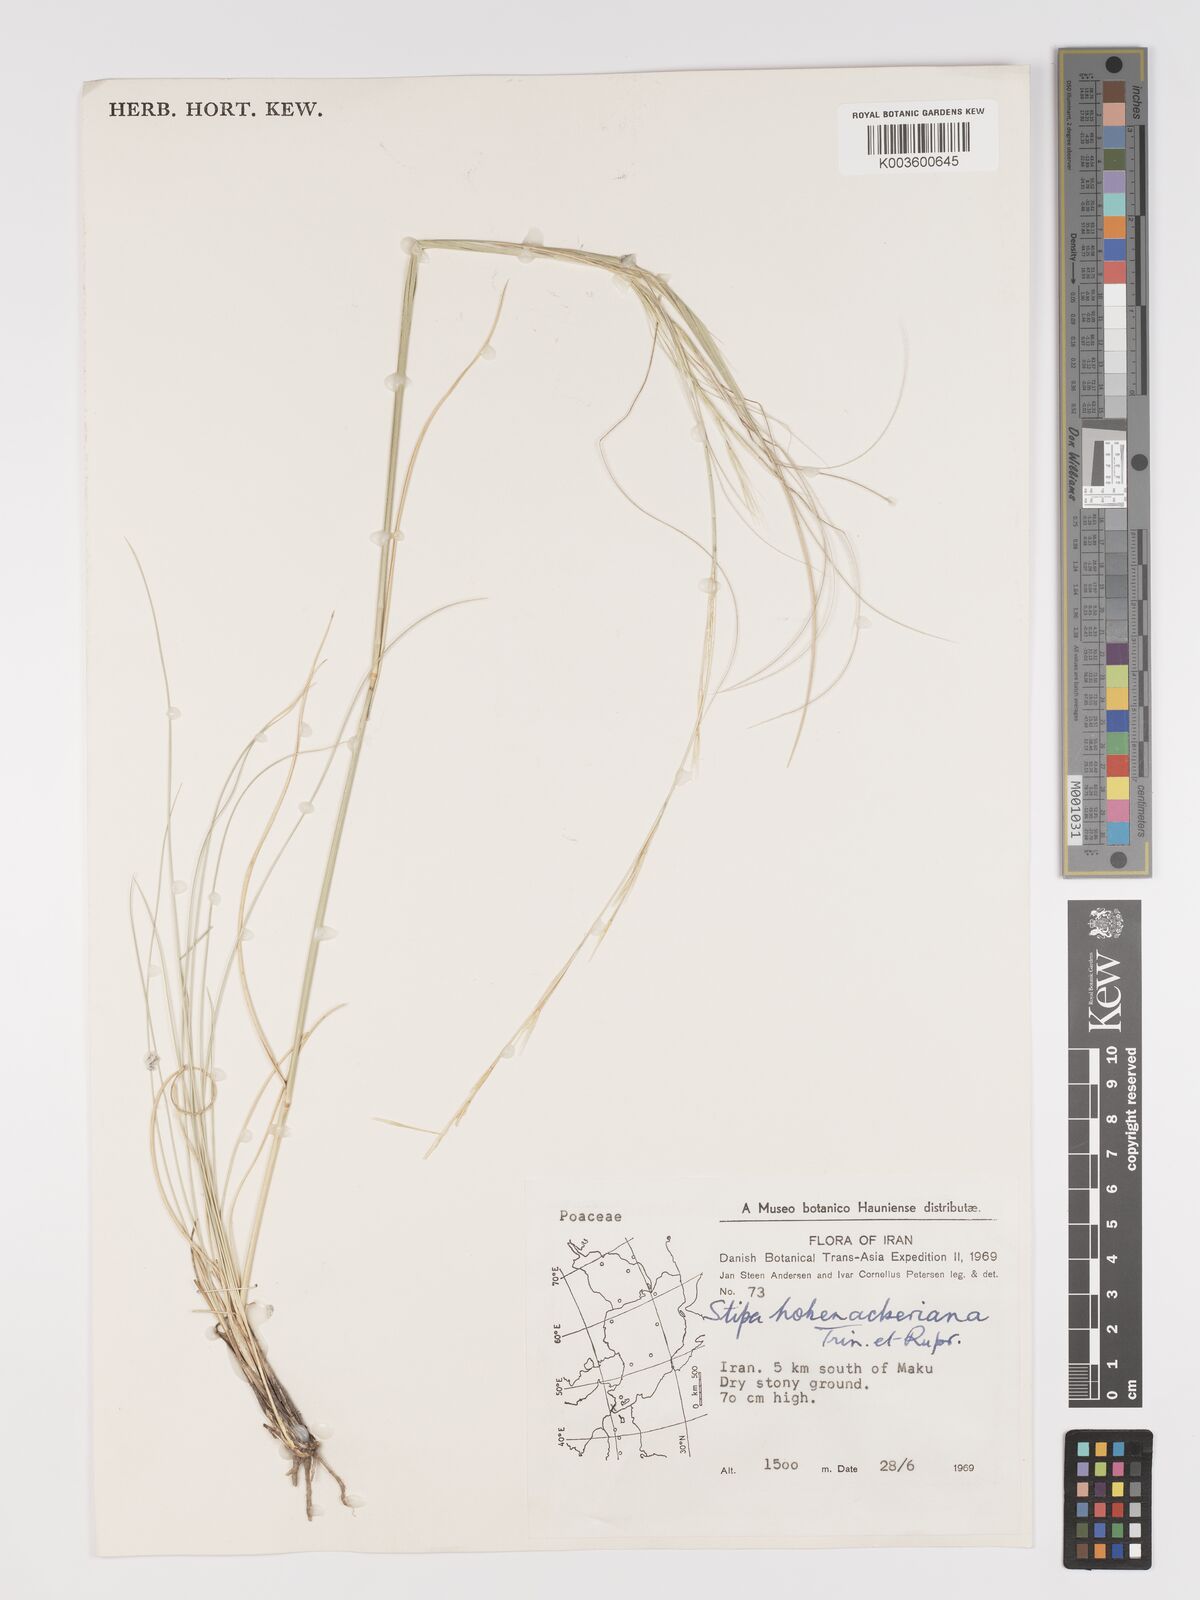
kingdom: Plantae
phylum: Tracheophyta
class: Liliopsida
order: Poales
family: Poaceae
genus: Stipa
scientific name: Stipa hohenackeriana
